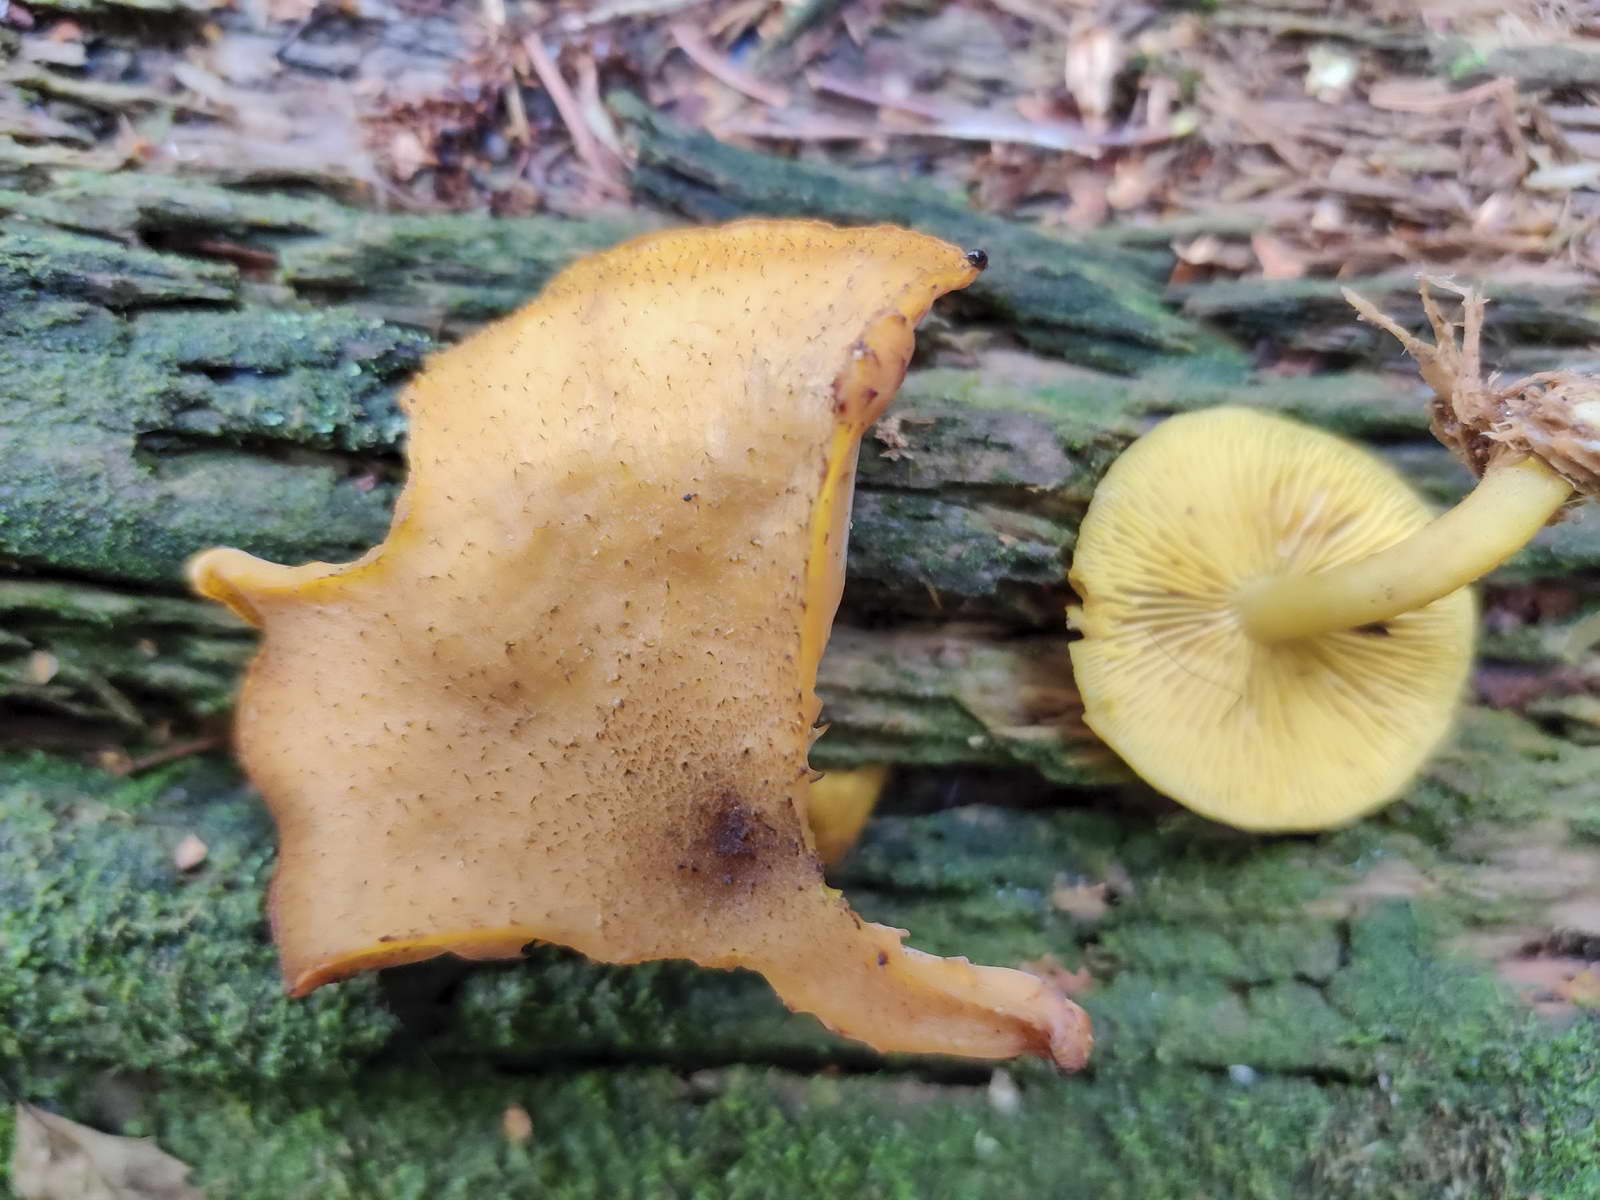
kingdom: Fungi
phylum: Basidiomycota
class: Agaricomycetes
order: Agaricales
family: Tricholomataceae
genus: Tricholomopsis
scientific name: Tricholomopsis decora
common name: sortskællet væbnerhat
